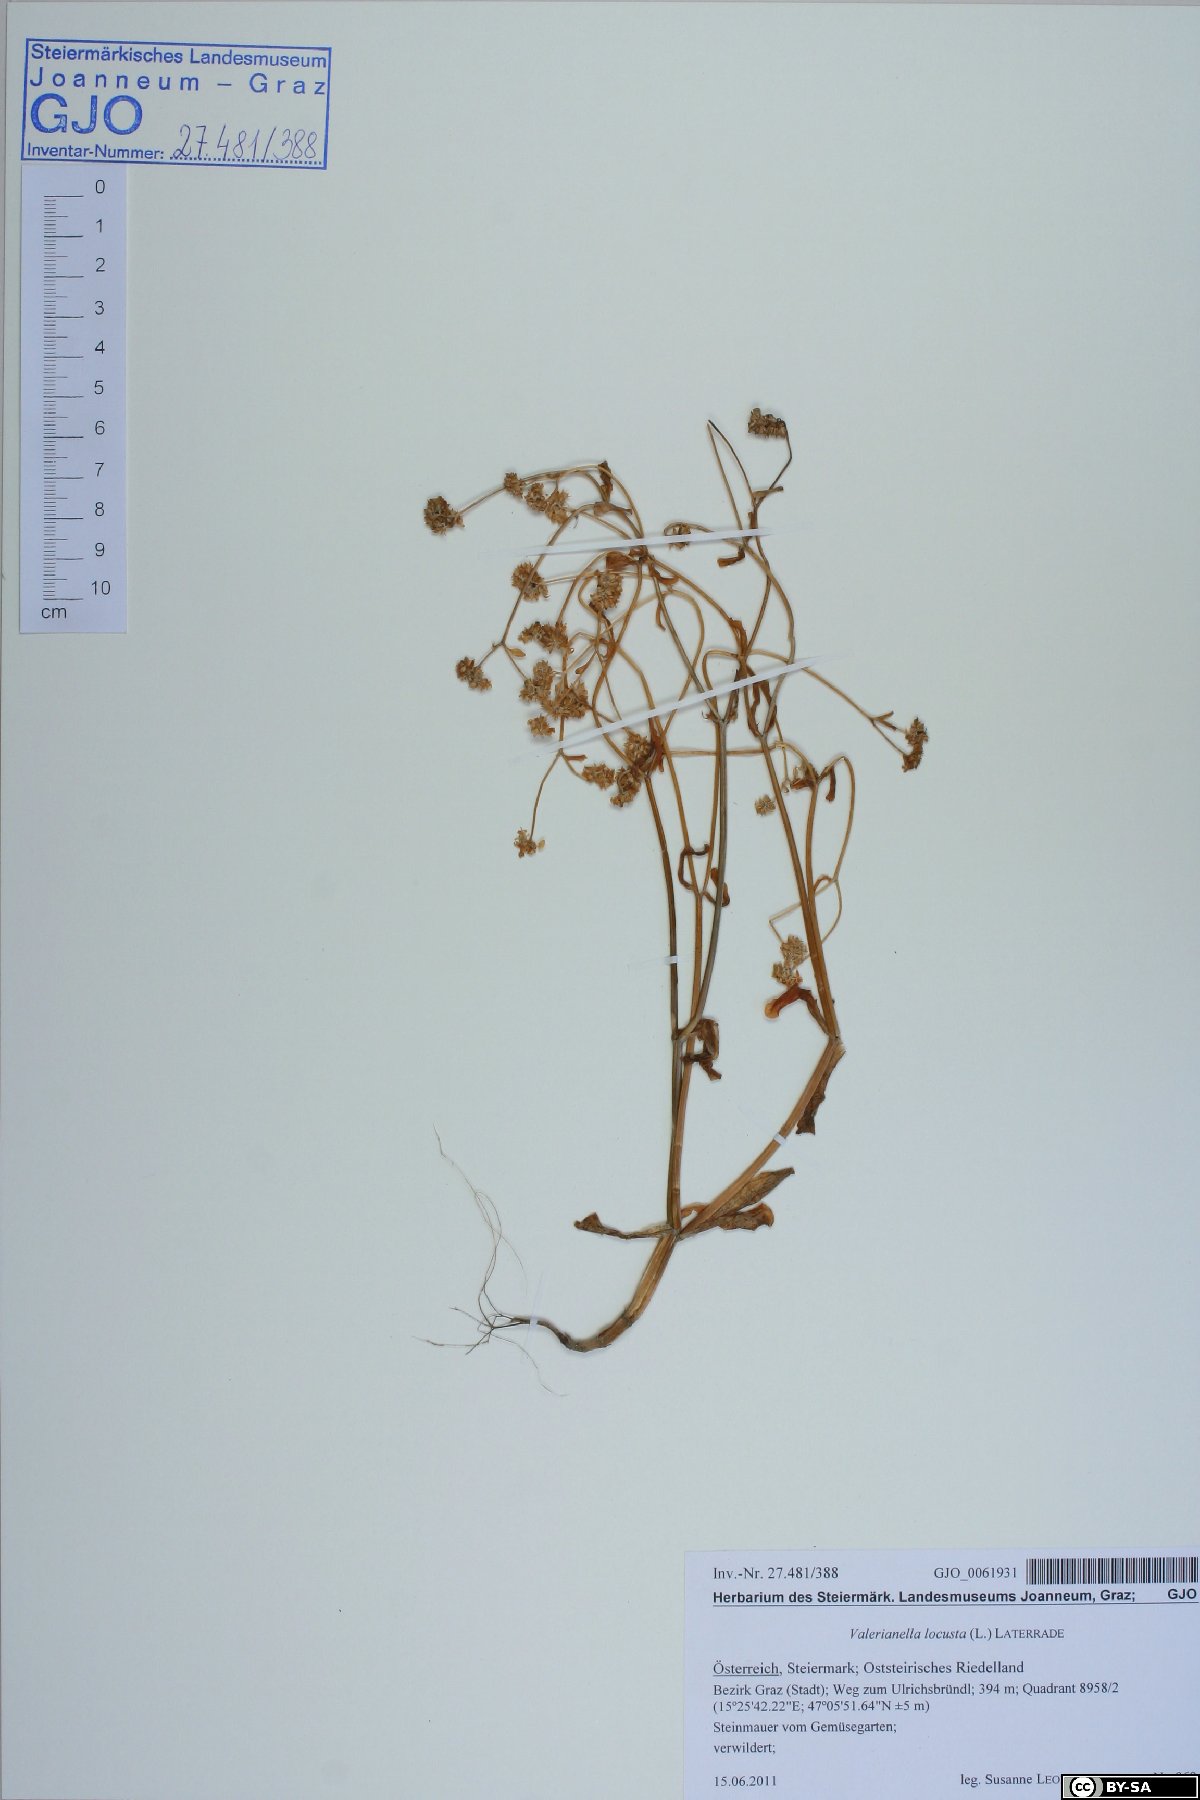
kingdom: Plantae
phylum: Tracheophyta
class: Magnoliopsida
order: Dipsacales
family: Caprifoliaceae
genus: Valerianella
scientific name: Valerianella locusta
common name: Common cornsalad
